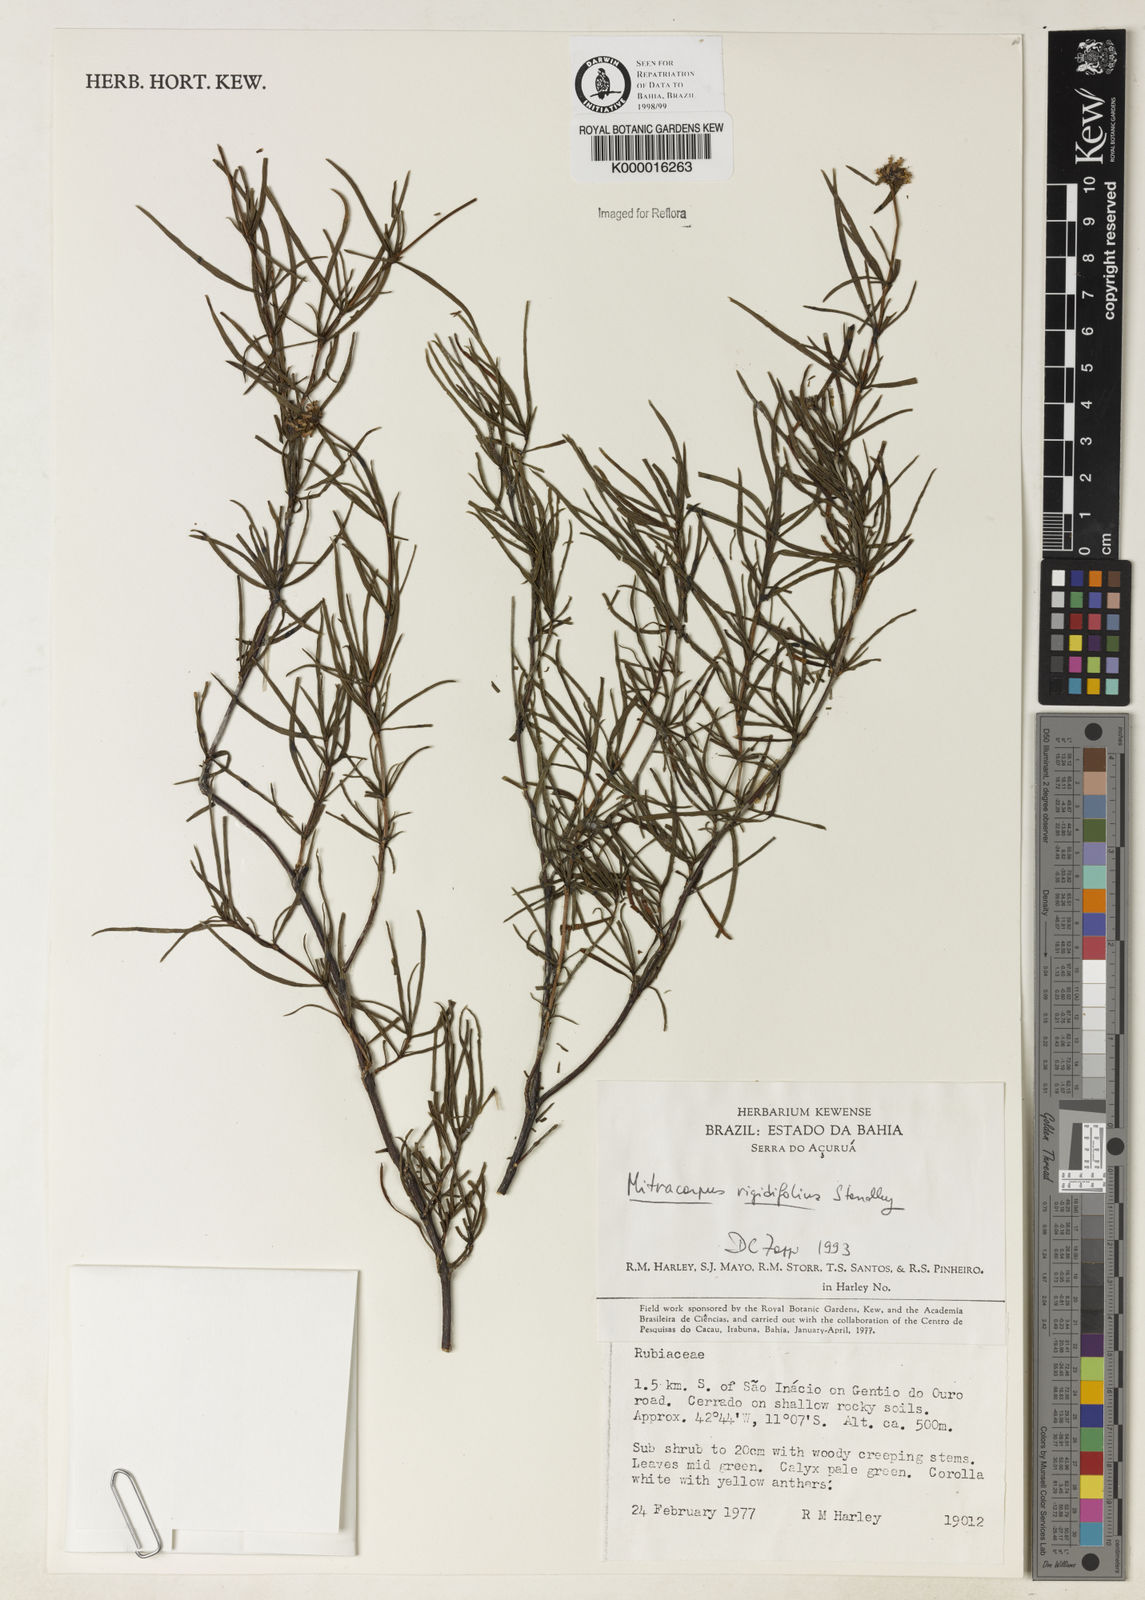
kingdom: Plantae
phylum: Tracheophyta
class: Magnoliopsida
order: Gentianales
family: Rubiaceae
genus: Mitracarpus
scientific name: Mitracarpus rigidifolius
